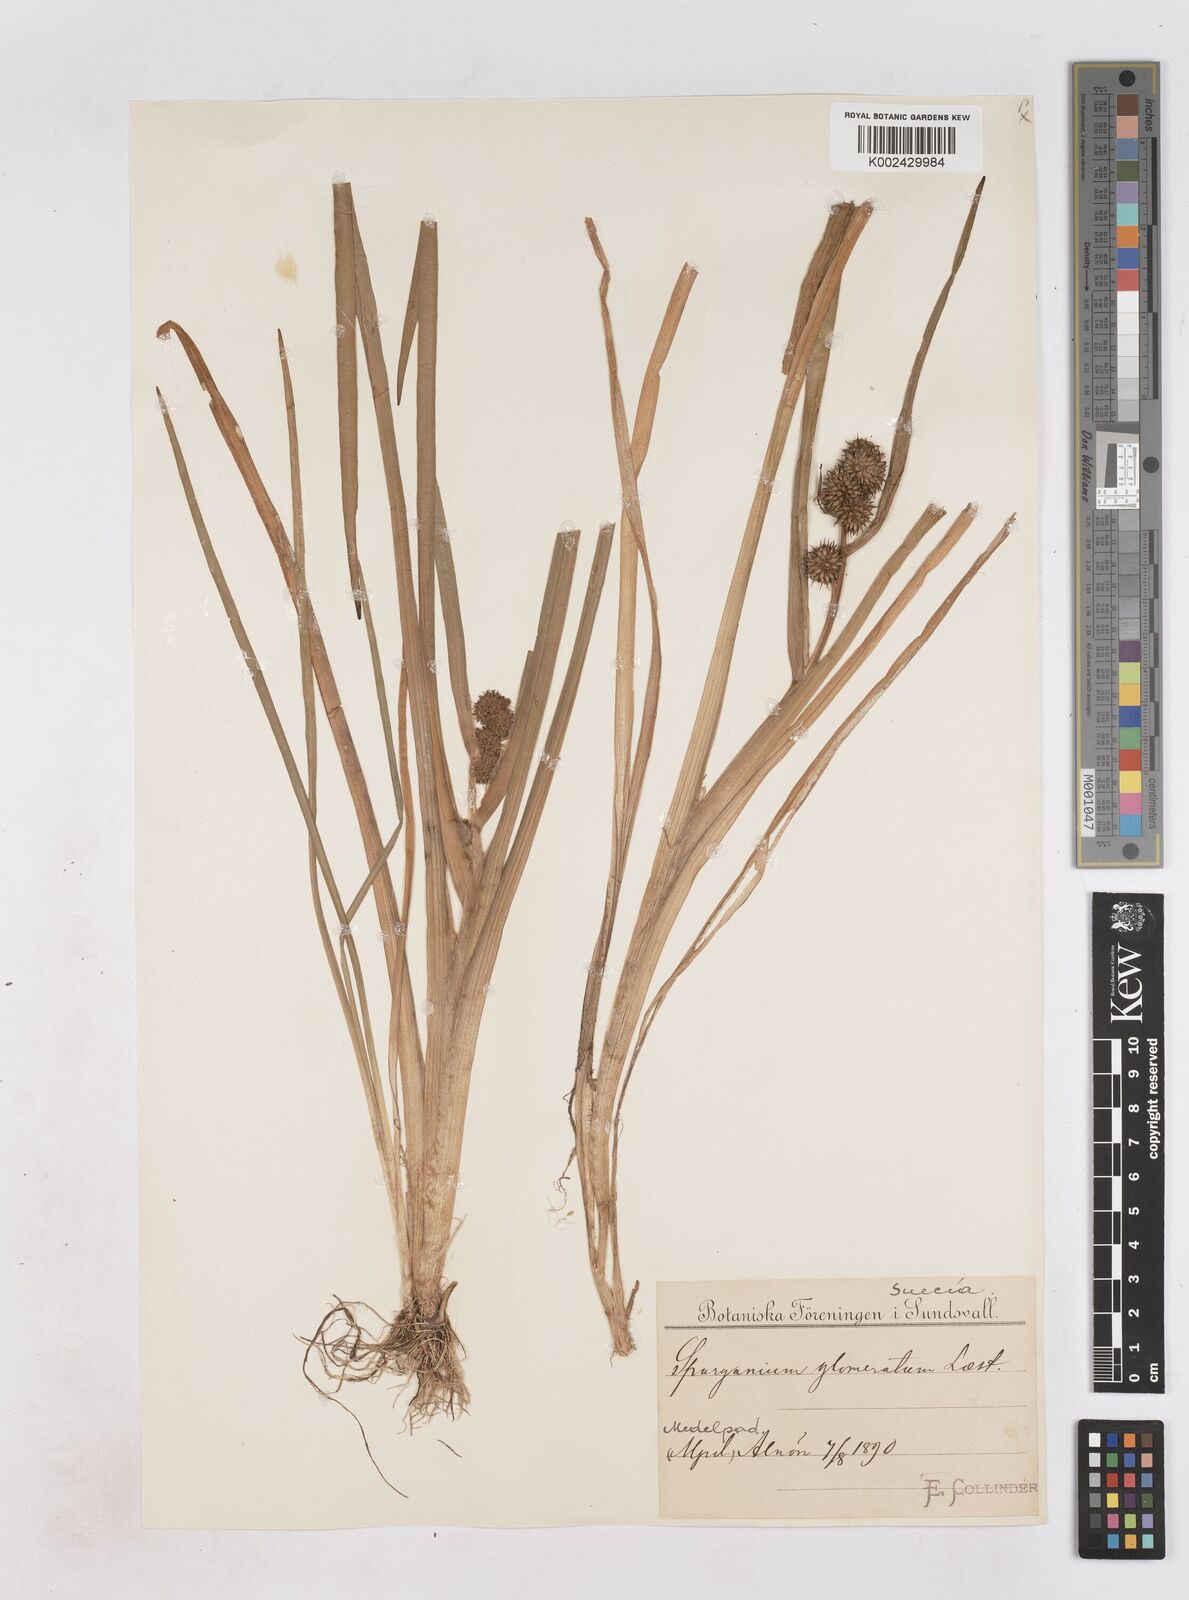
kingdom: Plantae
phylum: Tracheophyta
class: Liliopsida
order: Poales
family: Typhaceae
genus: Sparganium
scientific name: Sparganium angustifolium
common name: Floating bur-reed
